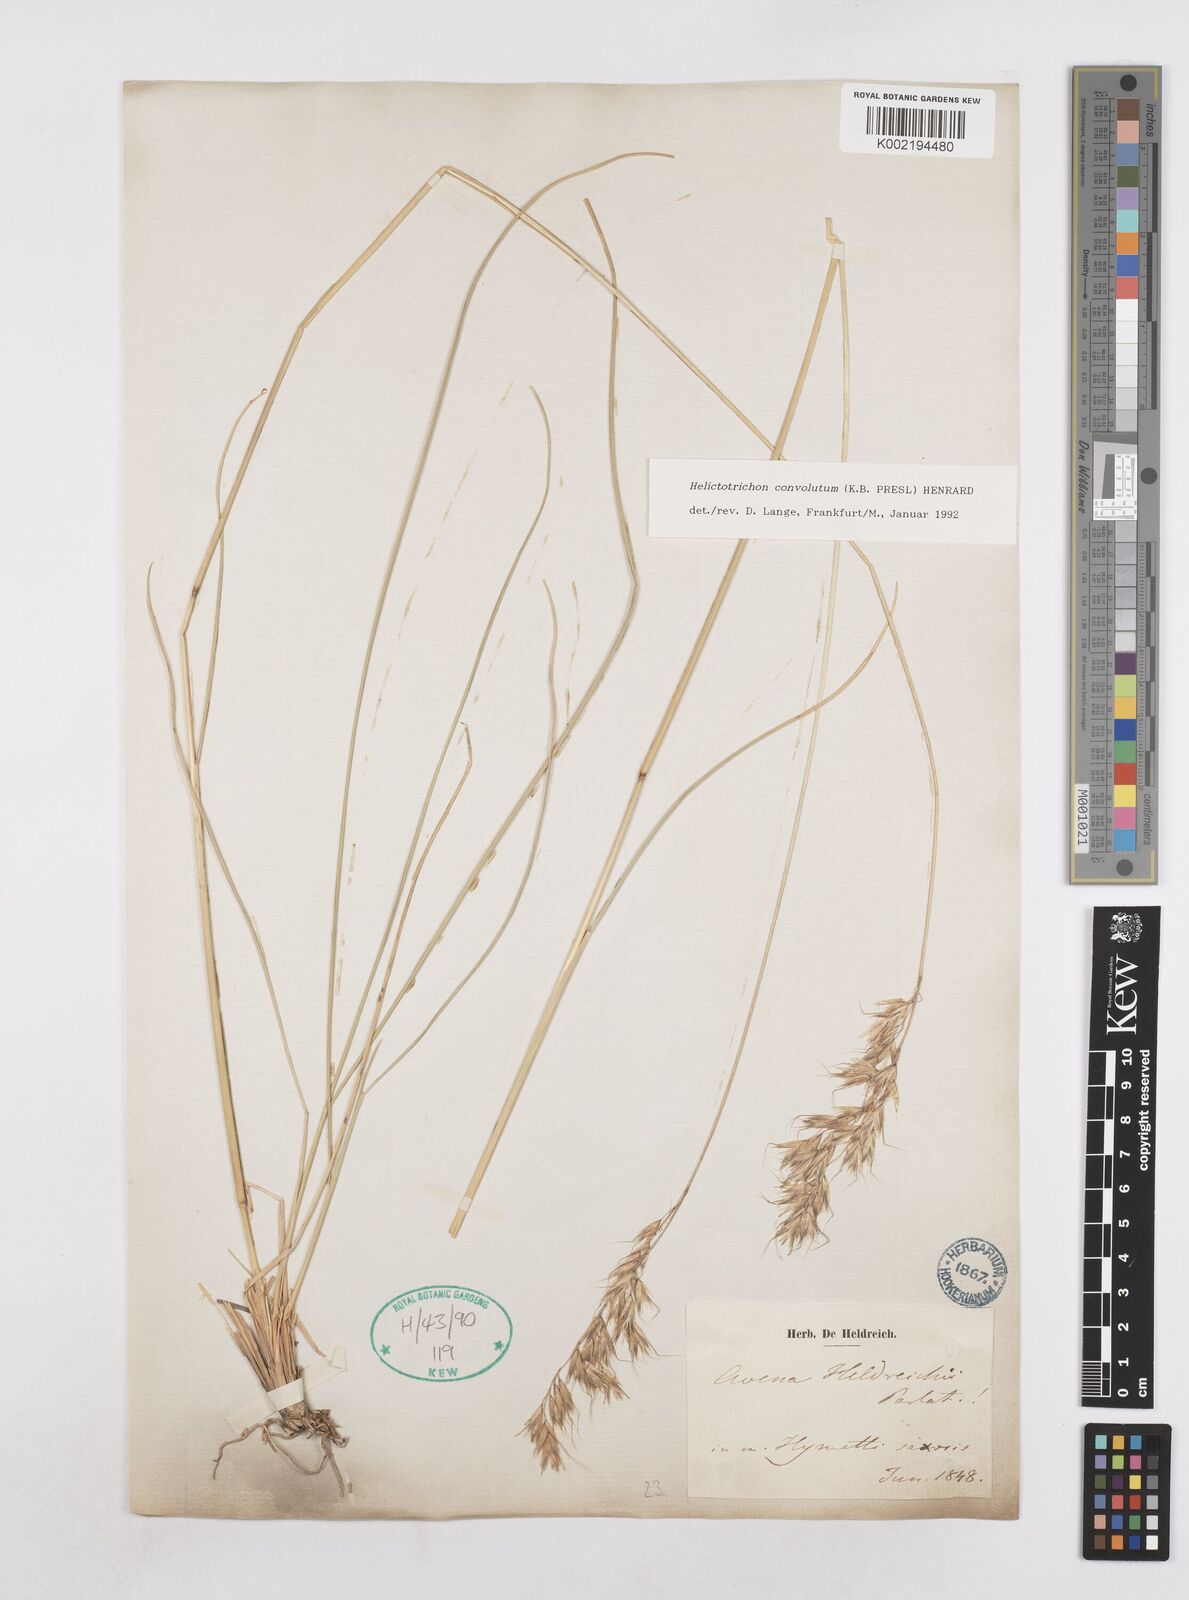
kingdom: Plantae
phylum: Tracheophyta
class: Liliopsida
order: Poales
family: Poaceae
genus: Helictotrichon
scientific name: Helictotrichon convolutum
